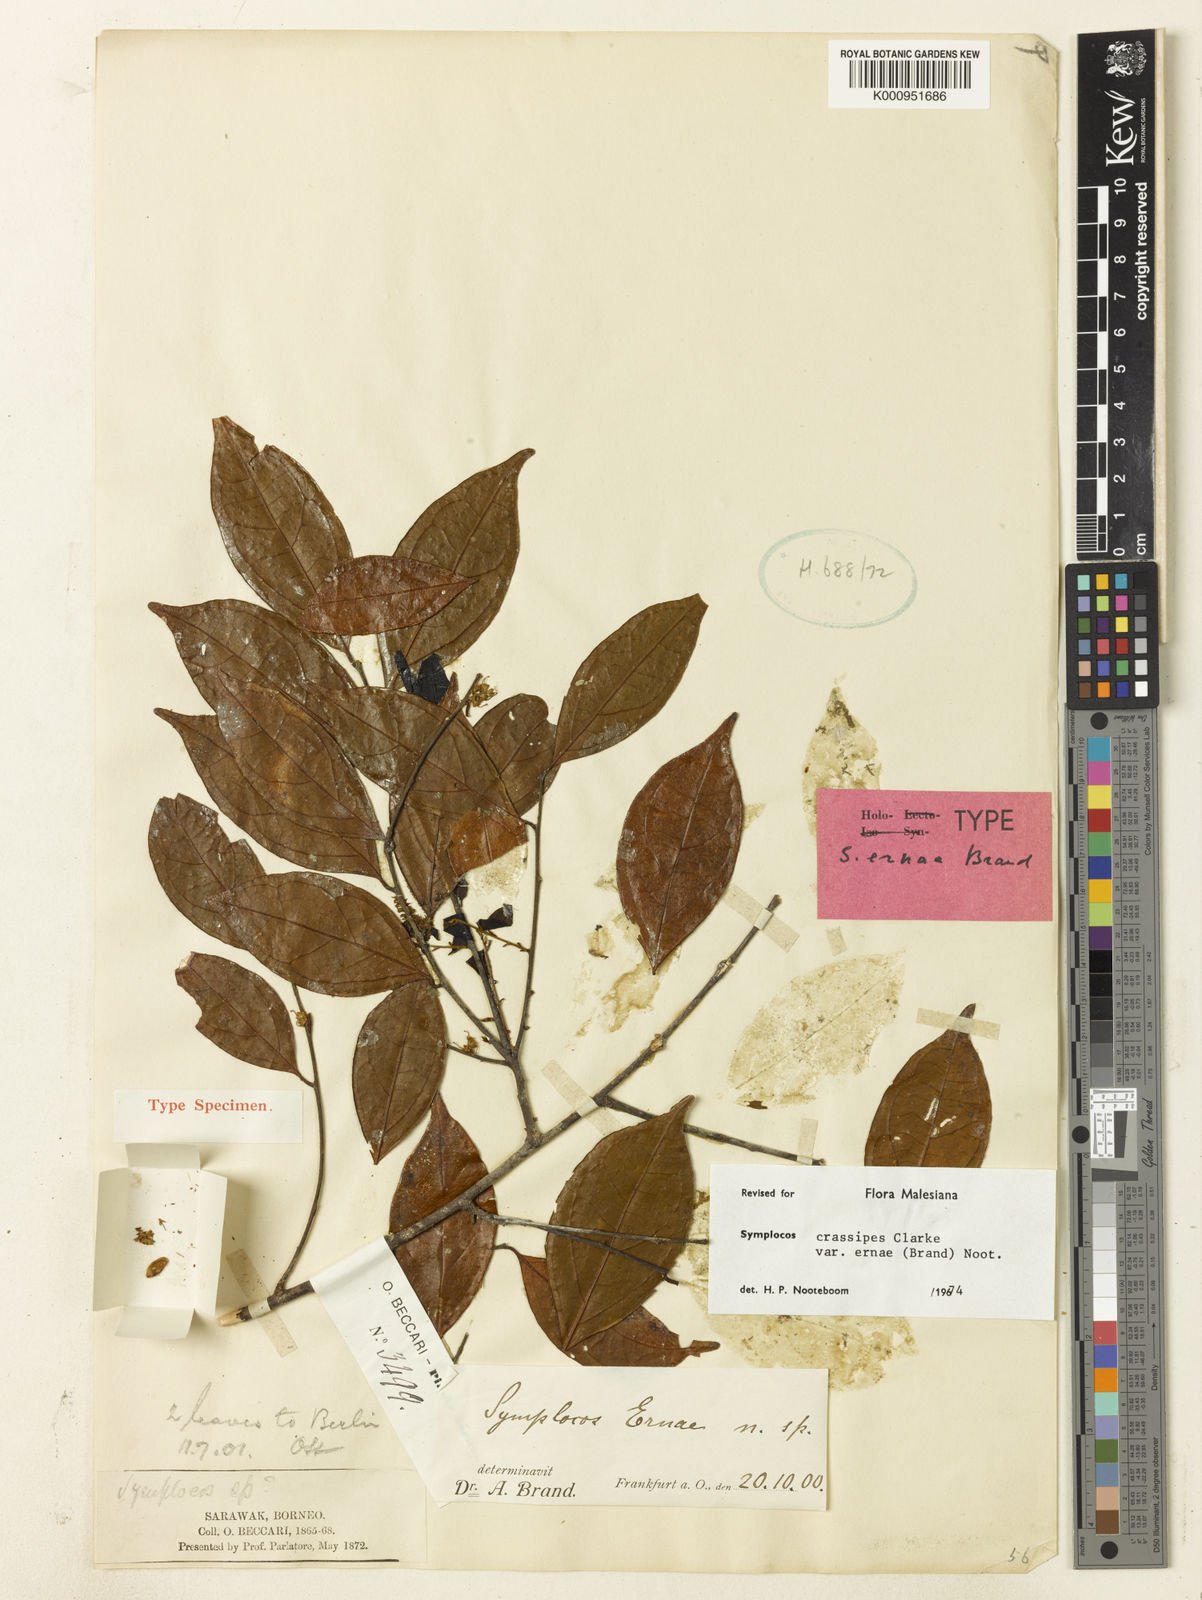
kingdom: Plantae
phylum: Tracheophyta
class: Magnoliopsida
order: Ericales
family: Symplocaceae
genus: Symplocos
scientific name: Symplocos crassipes
